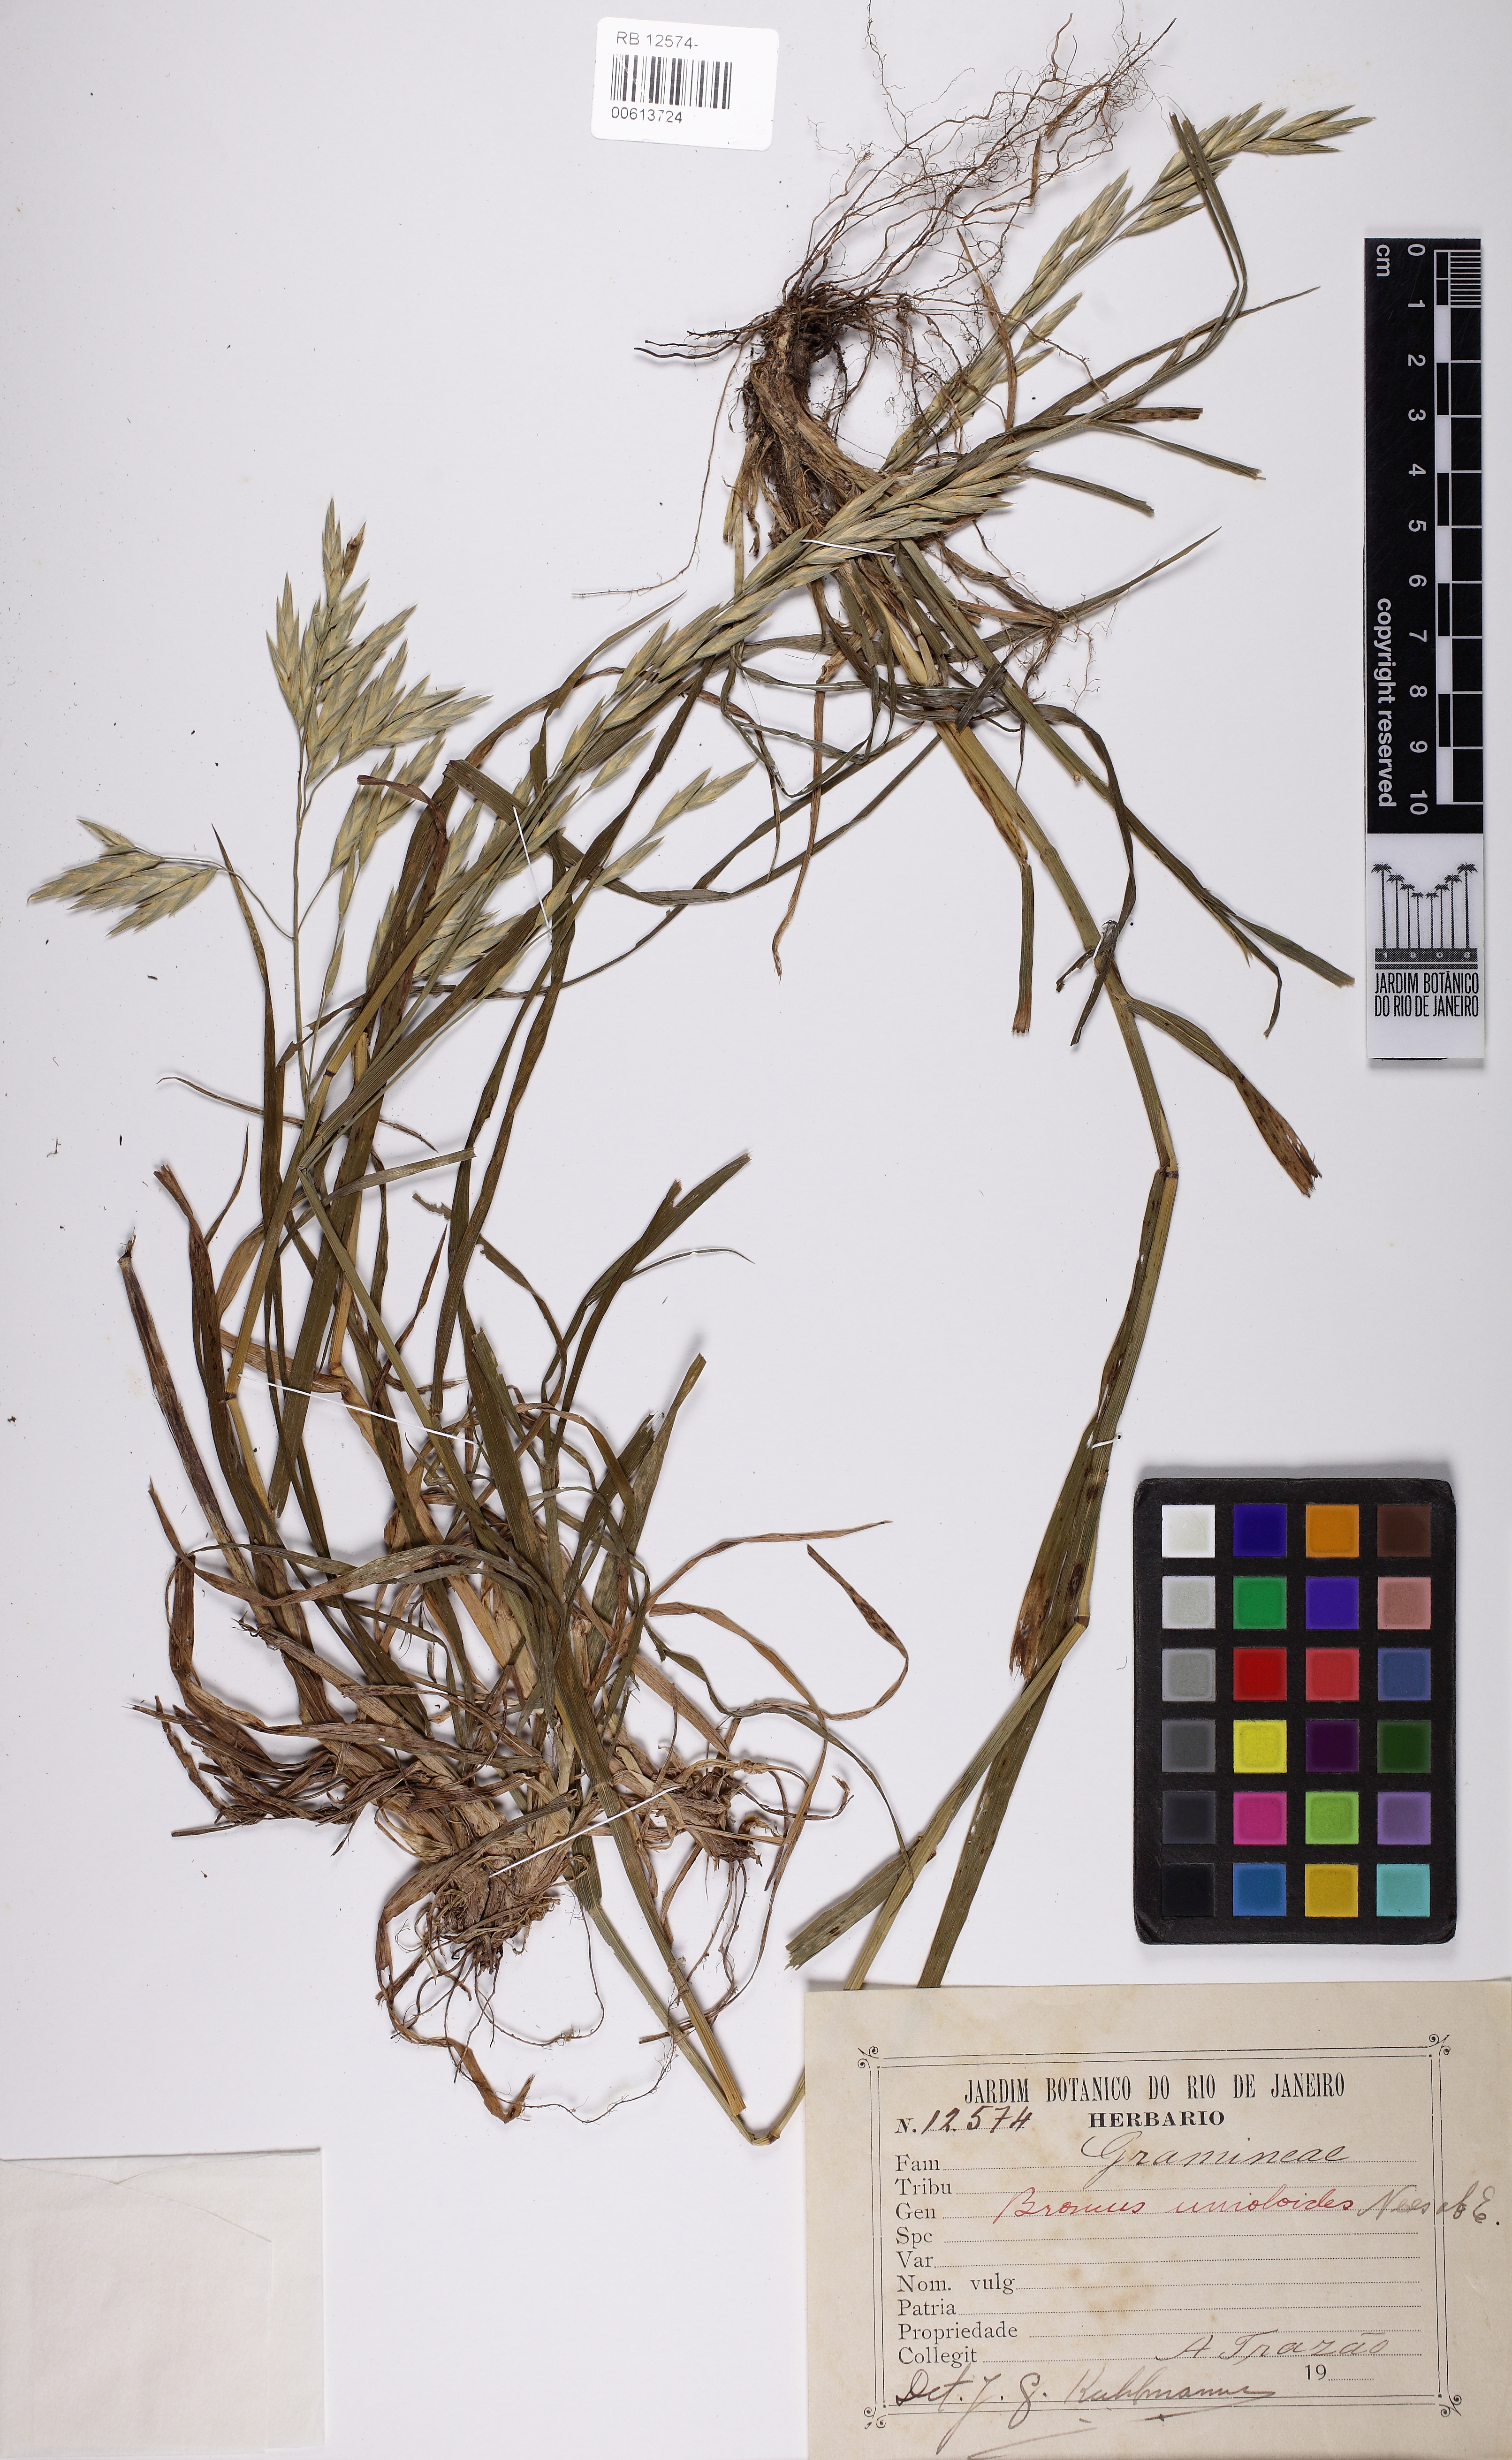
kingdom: Plantae
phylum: Tracheophyta
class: Liliopsida
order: Poales
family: Poaceae
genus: Bromus
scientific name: Bromus catharticus
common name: Rescuegrass
